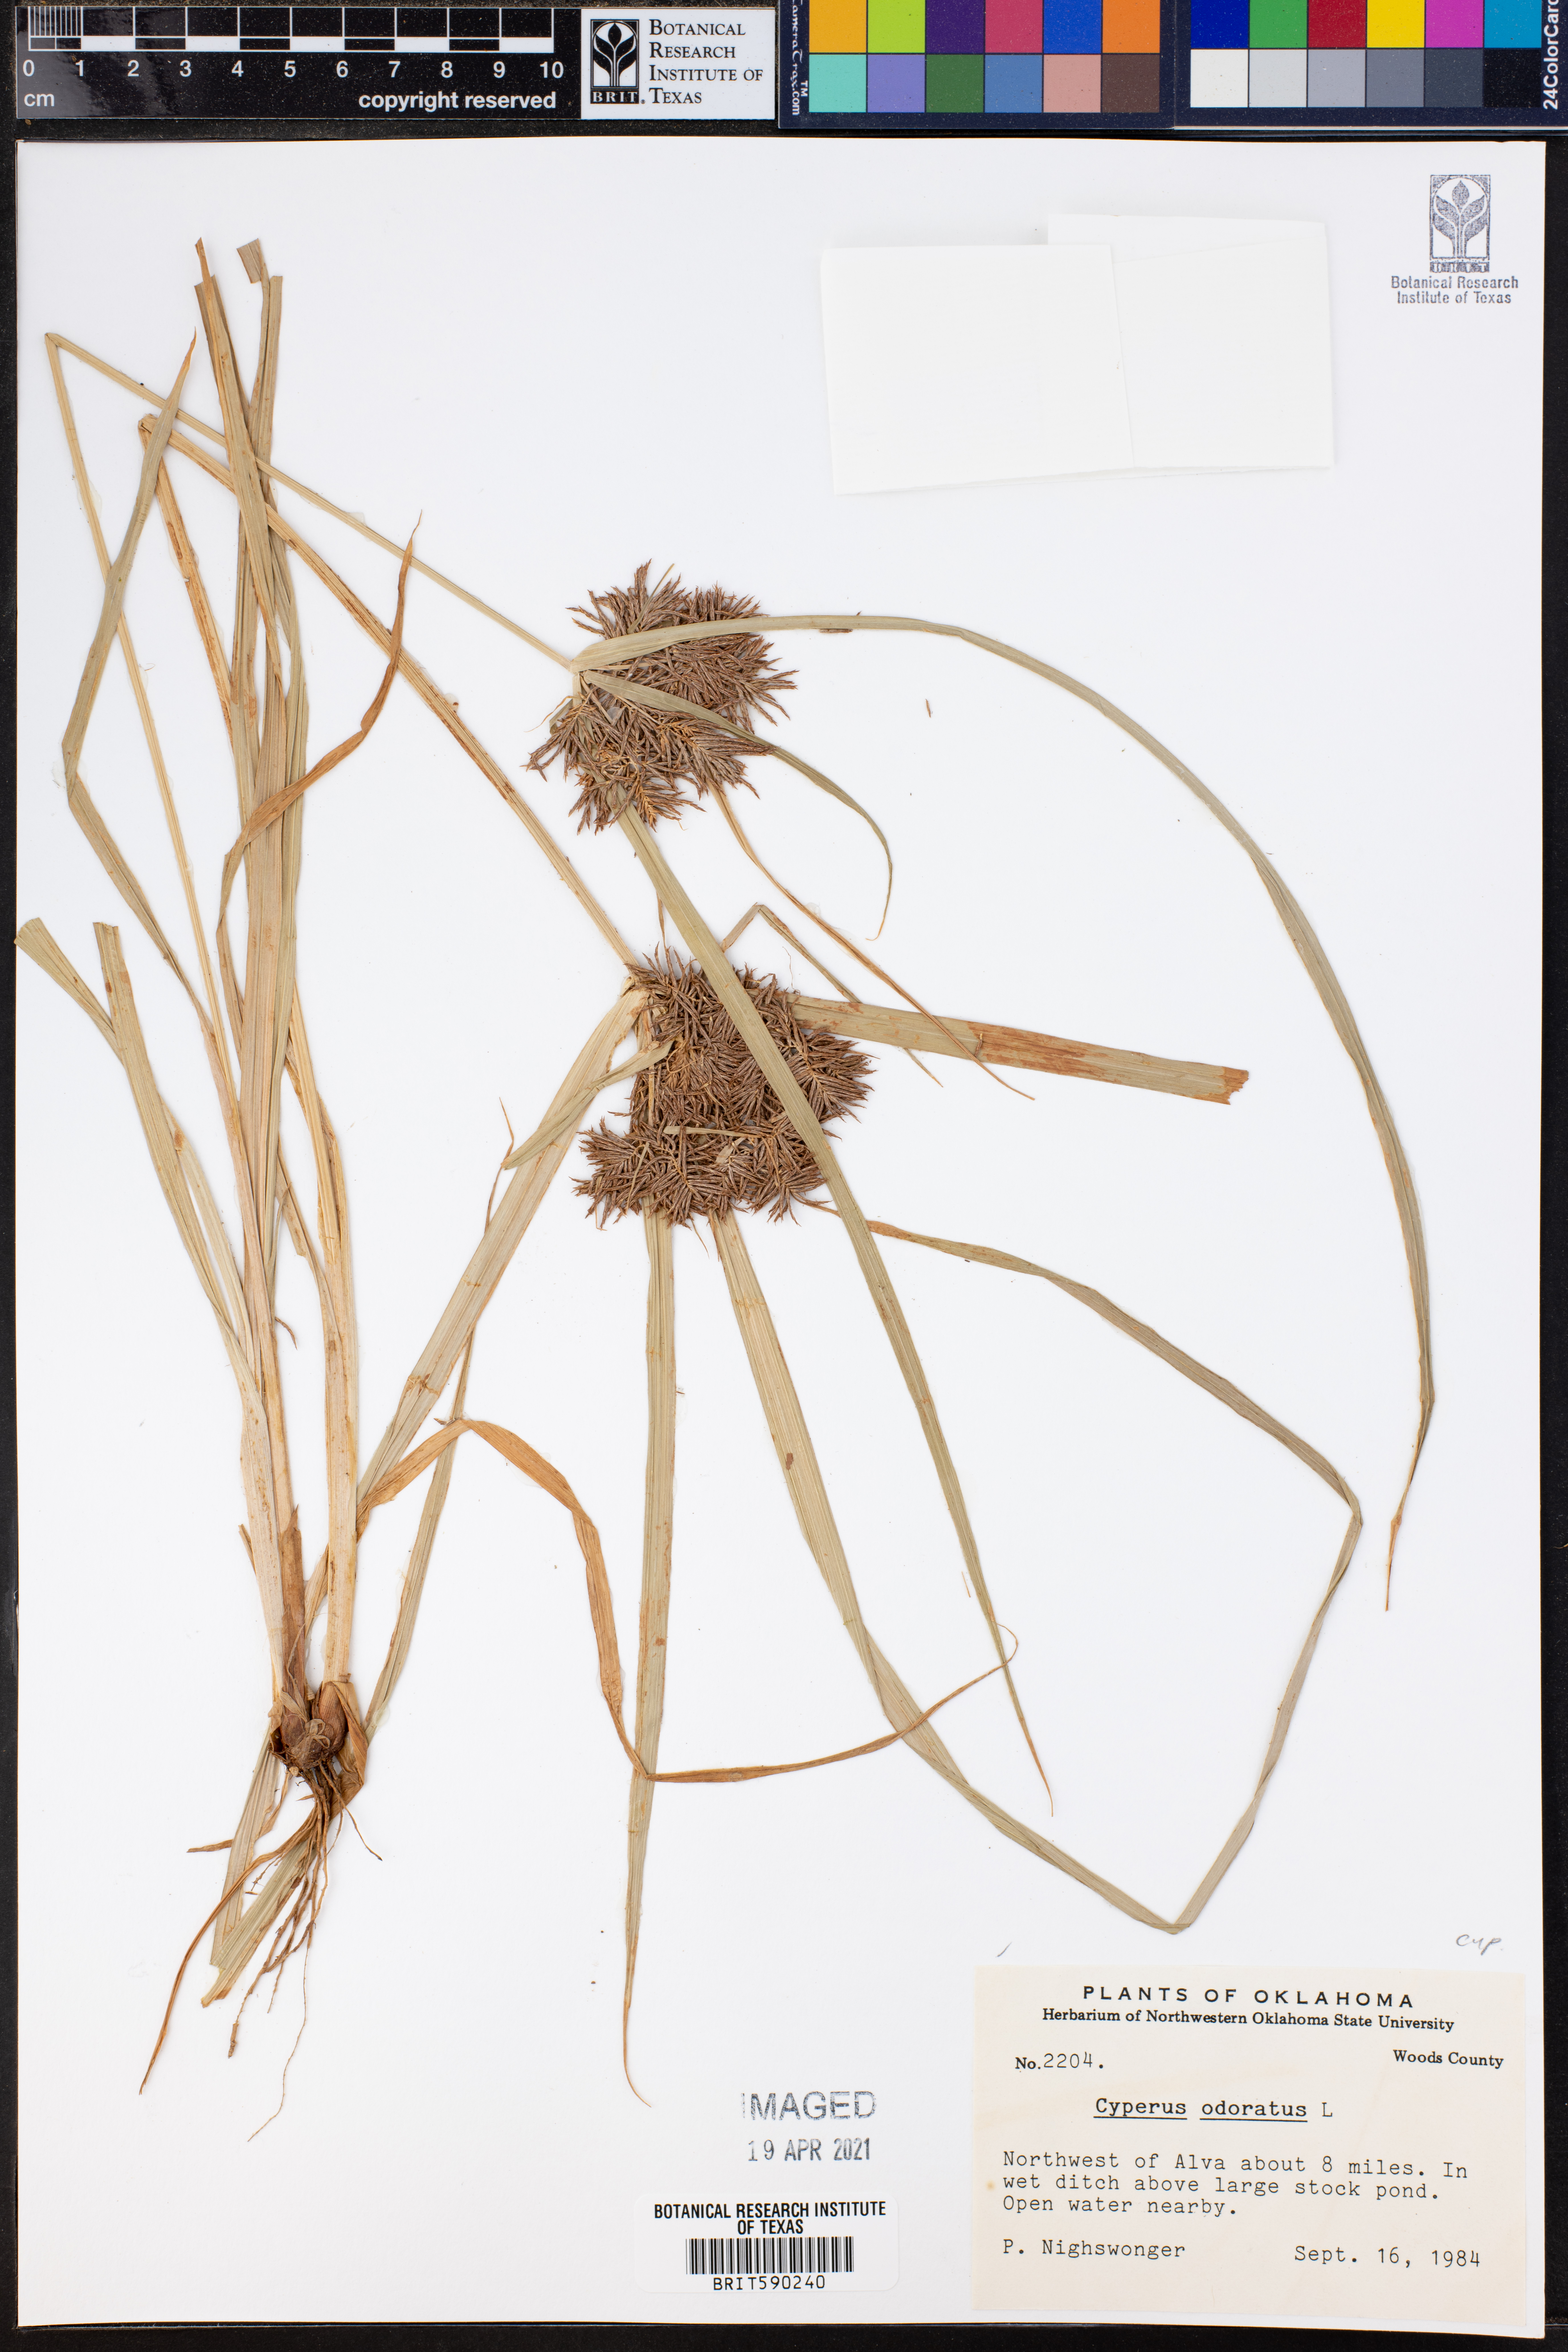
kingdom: Plantae
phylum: Tracheophyta
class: Liliopsida
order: Poales
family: Cyperaceae
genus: Cyperus
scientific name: Cyperus odoratus
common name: Fragrant flatsedge
